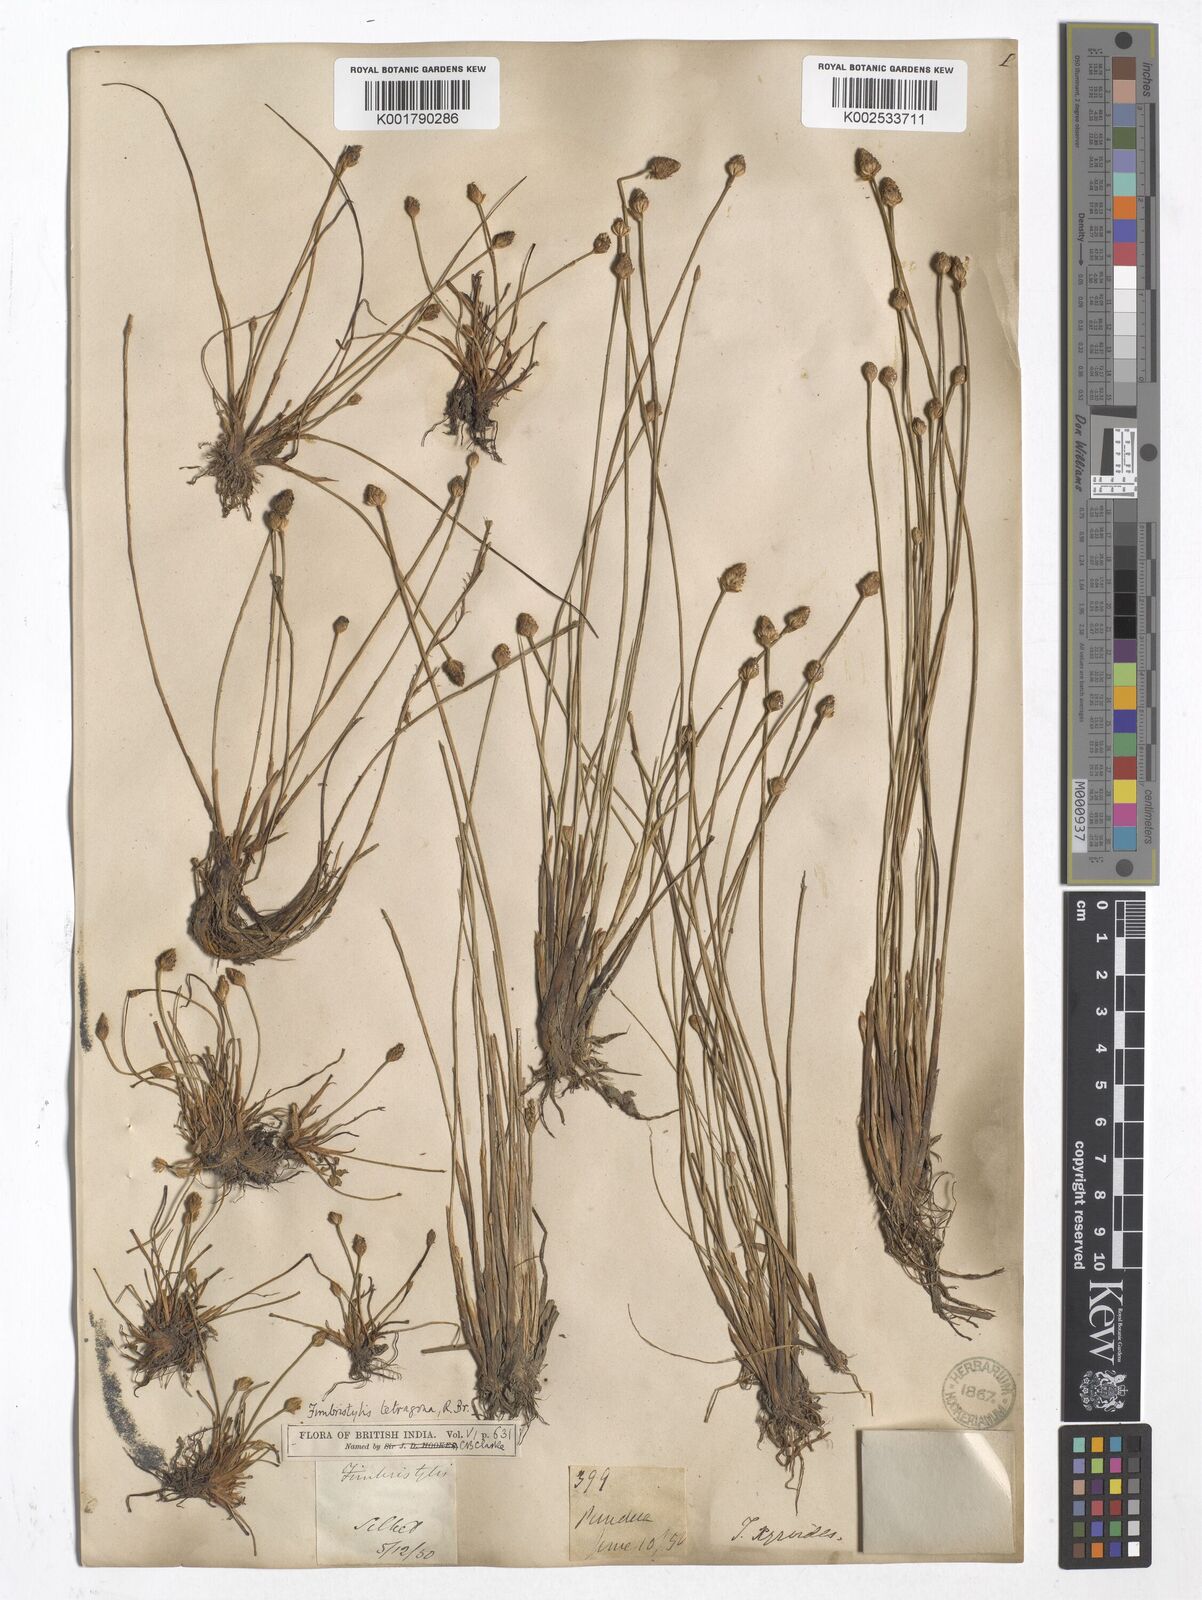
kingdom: Plantae
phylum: Tracheophyta
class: Liliopsida
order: Poales
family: Cyperaceae
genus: Fimbristylis
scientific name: Fimbristylis xyridis
